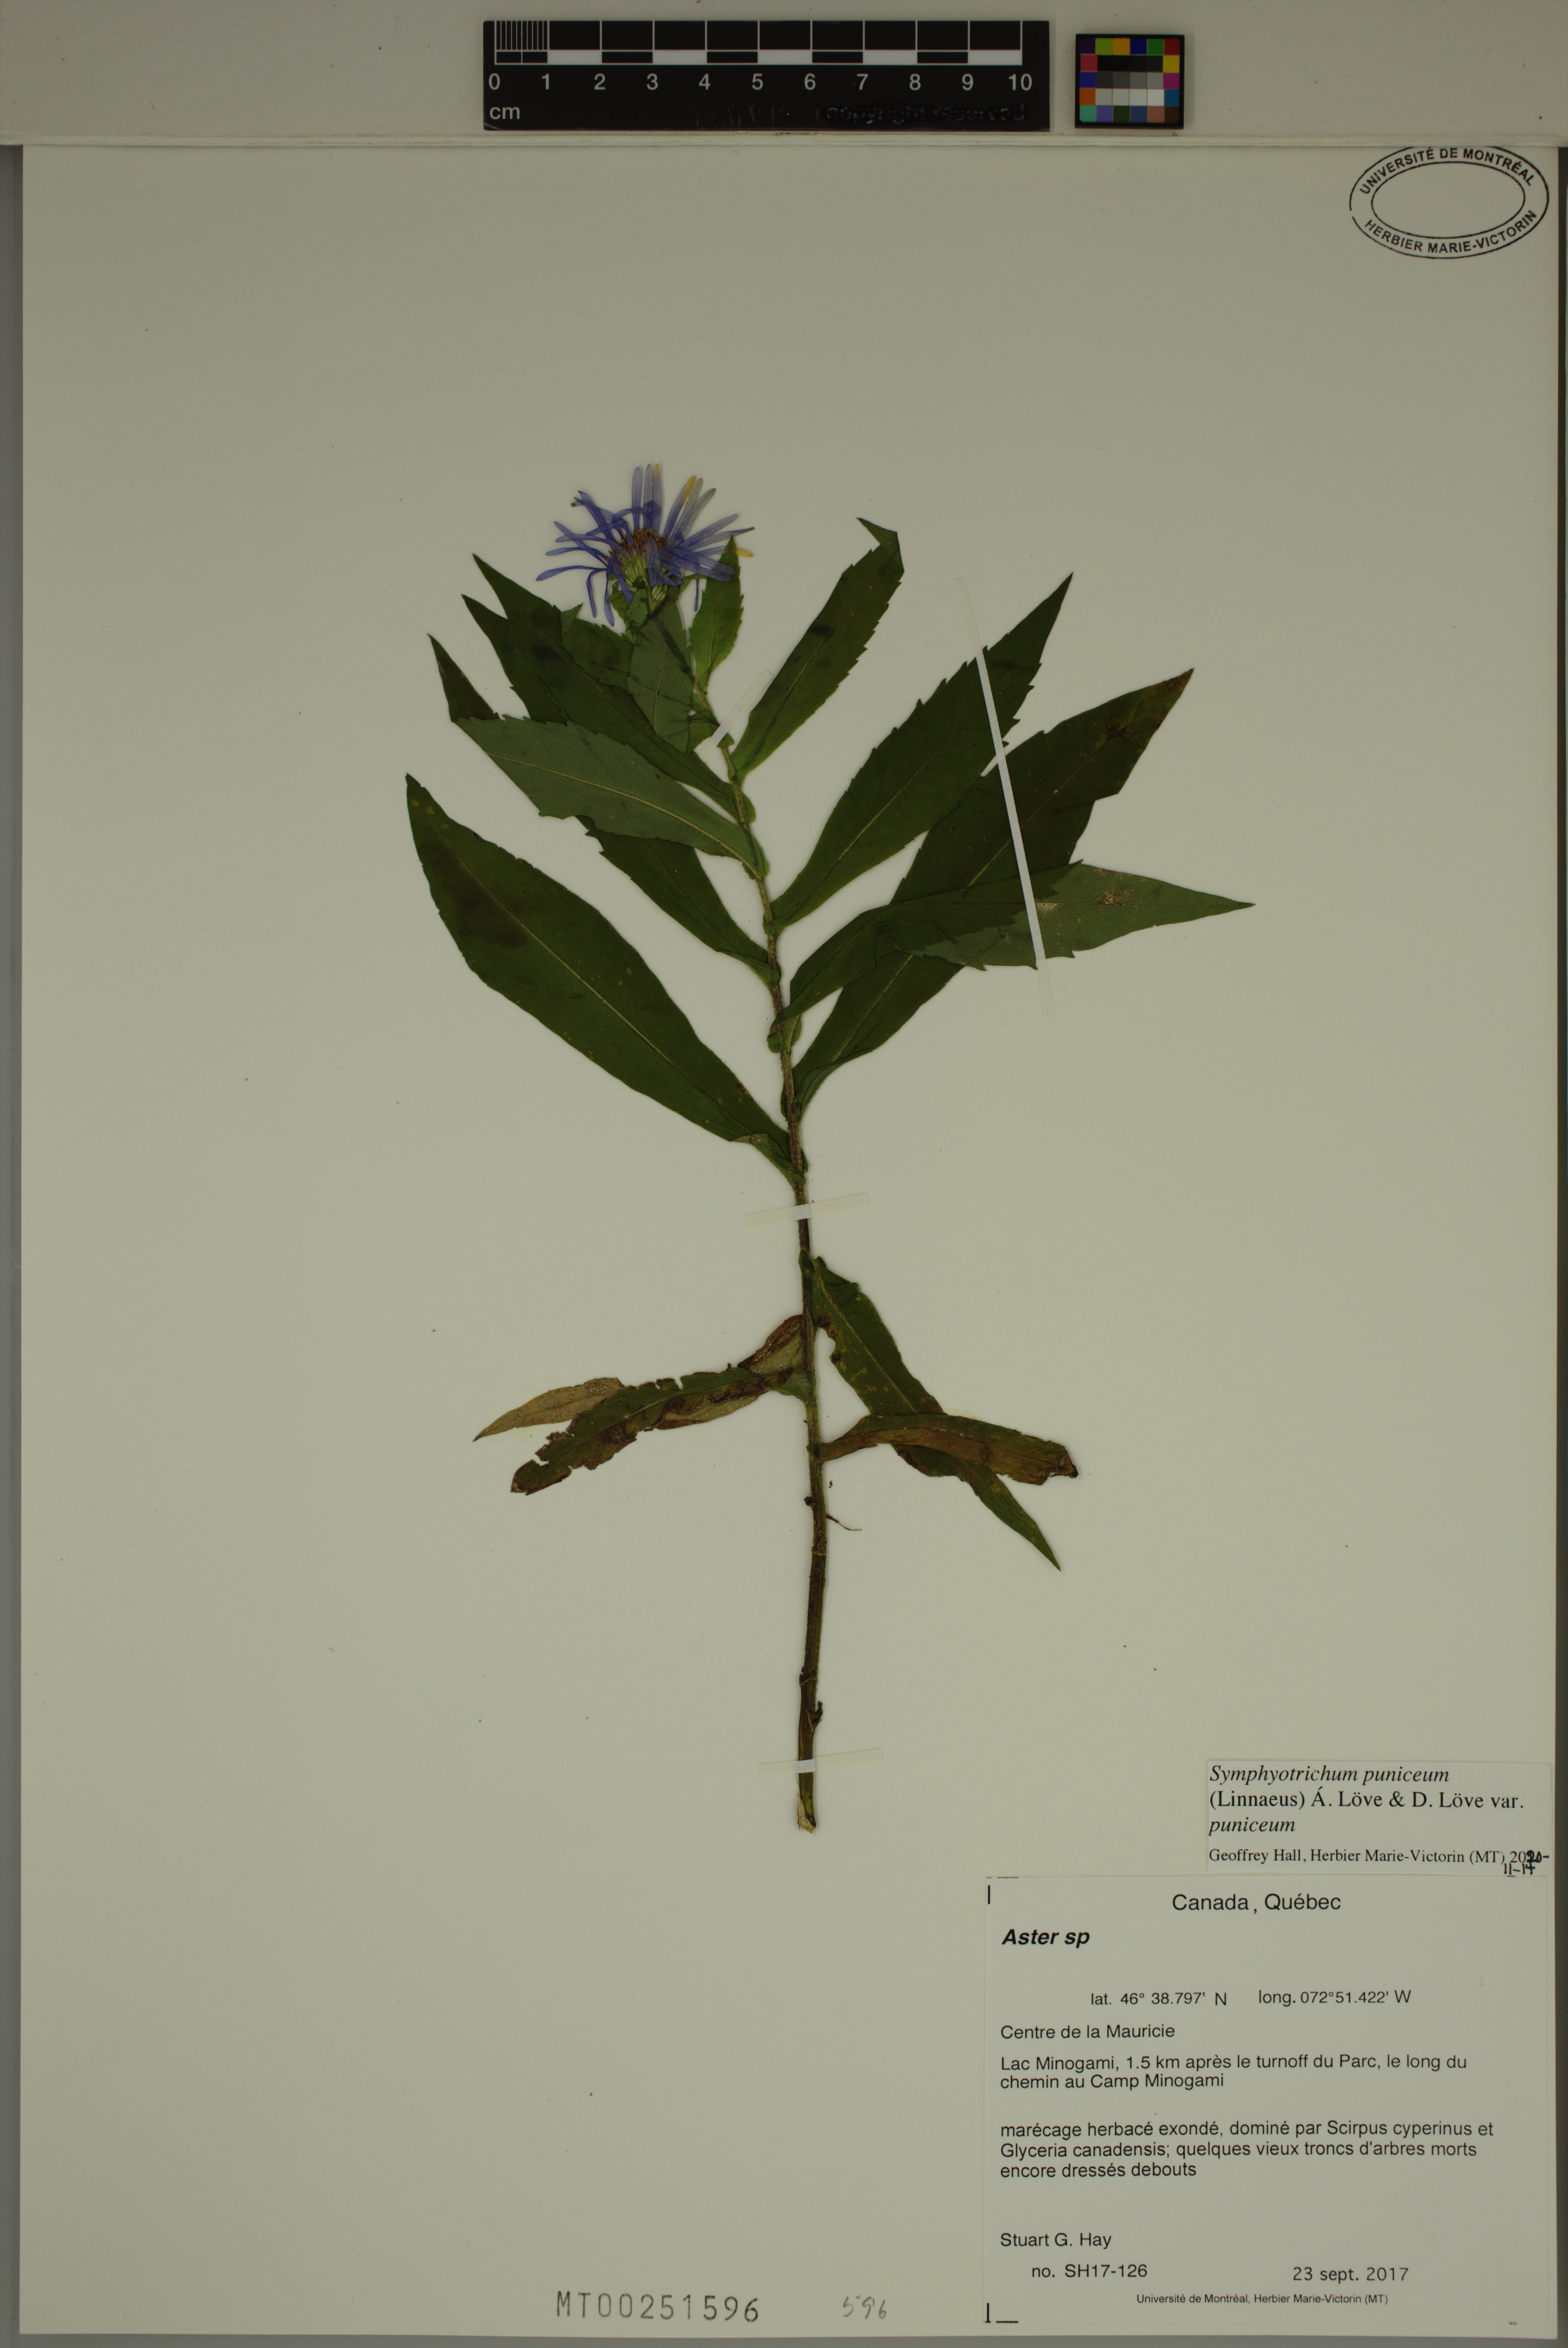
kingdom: Plantae
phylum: Tracheophyta
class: Magnoliopsida
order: Asterales
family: Asteraceae
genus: Symphyotrichum
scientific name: Symphyotrichum puniceum
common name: Bog aster
